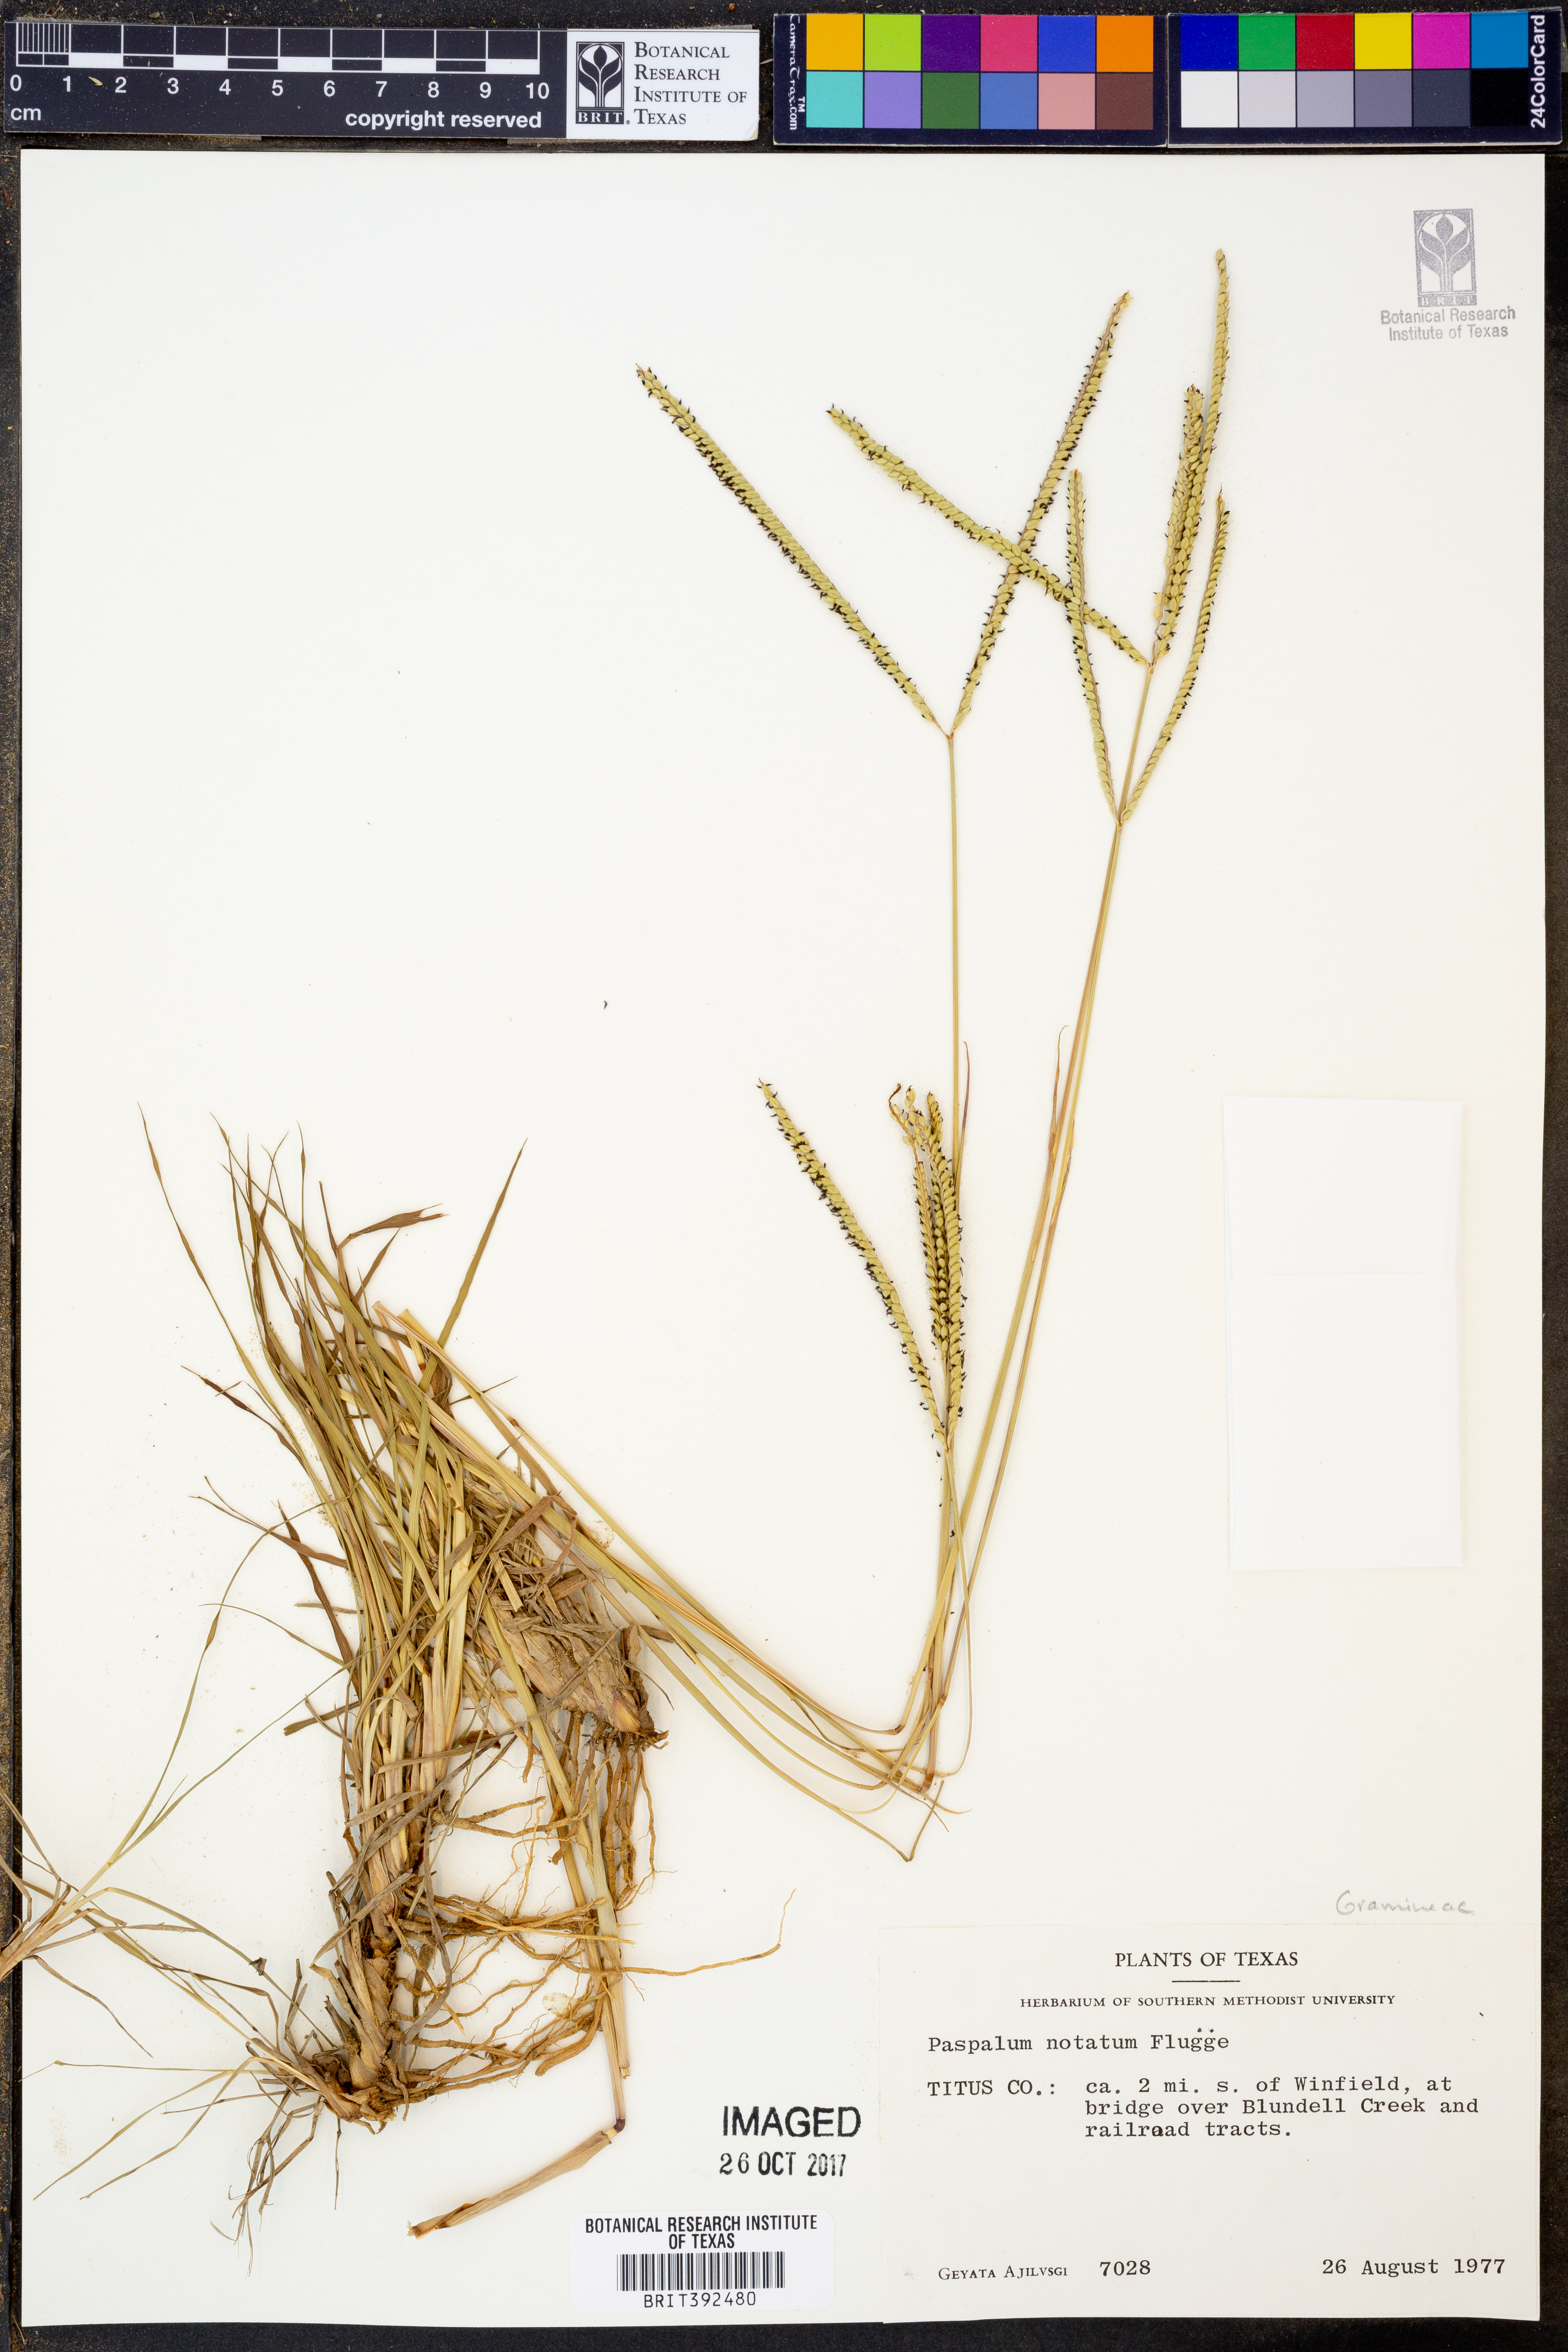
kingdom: Plantae
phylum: Tracheophyta
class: Liliopsida
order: Poales
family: Poaceae
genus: Paspalum
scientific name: Paspalum notatum
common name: Bahiagrass
